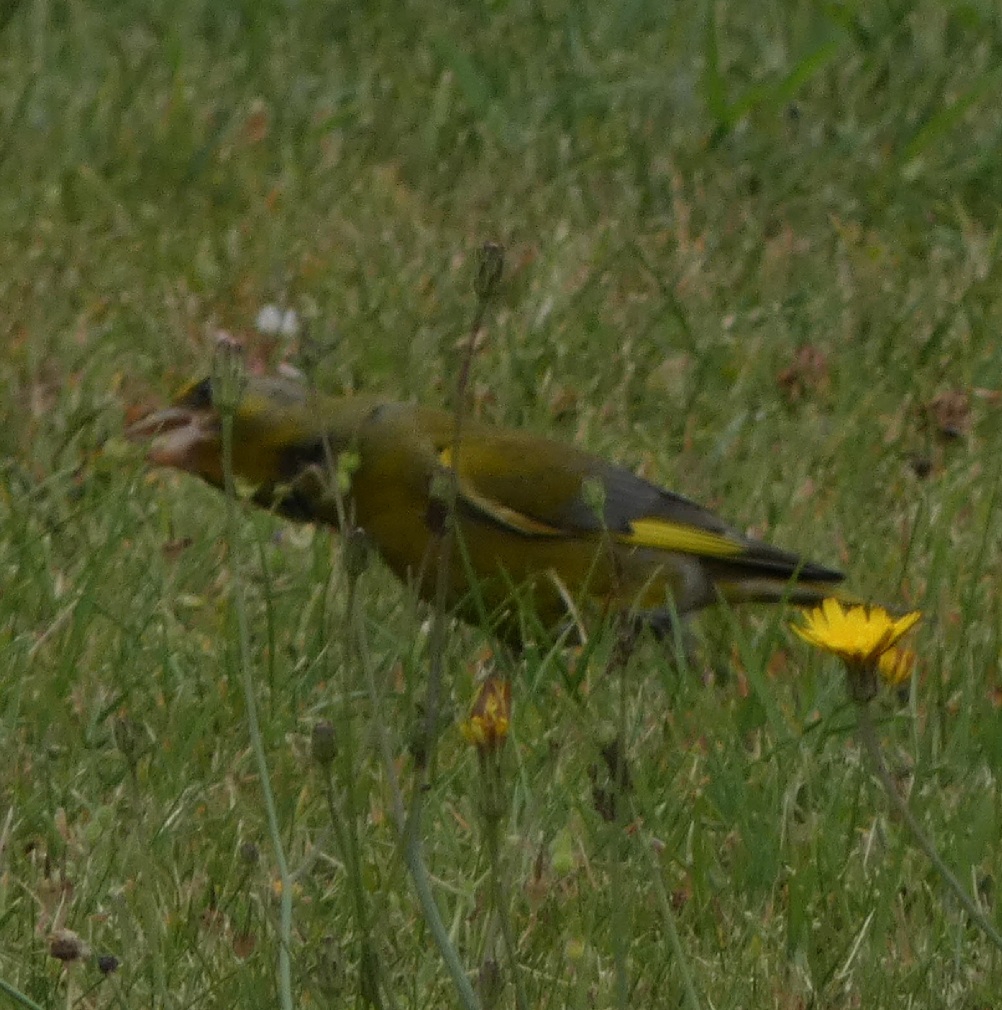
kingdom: Plantae
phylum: Tracheophyta
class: Liliopsida
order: Poales
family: Poaceae
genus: Chloris
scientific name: Chloris chloris
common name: Grønirisk
